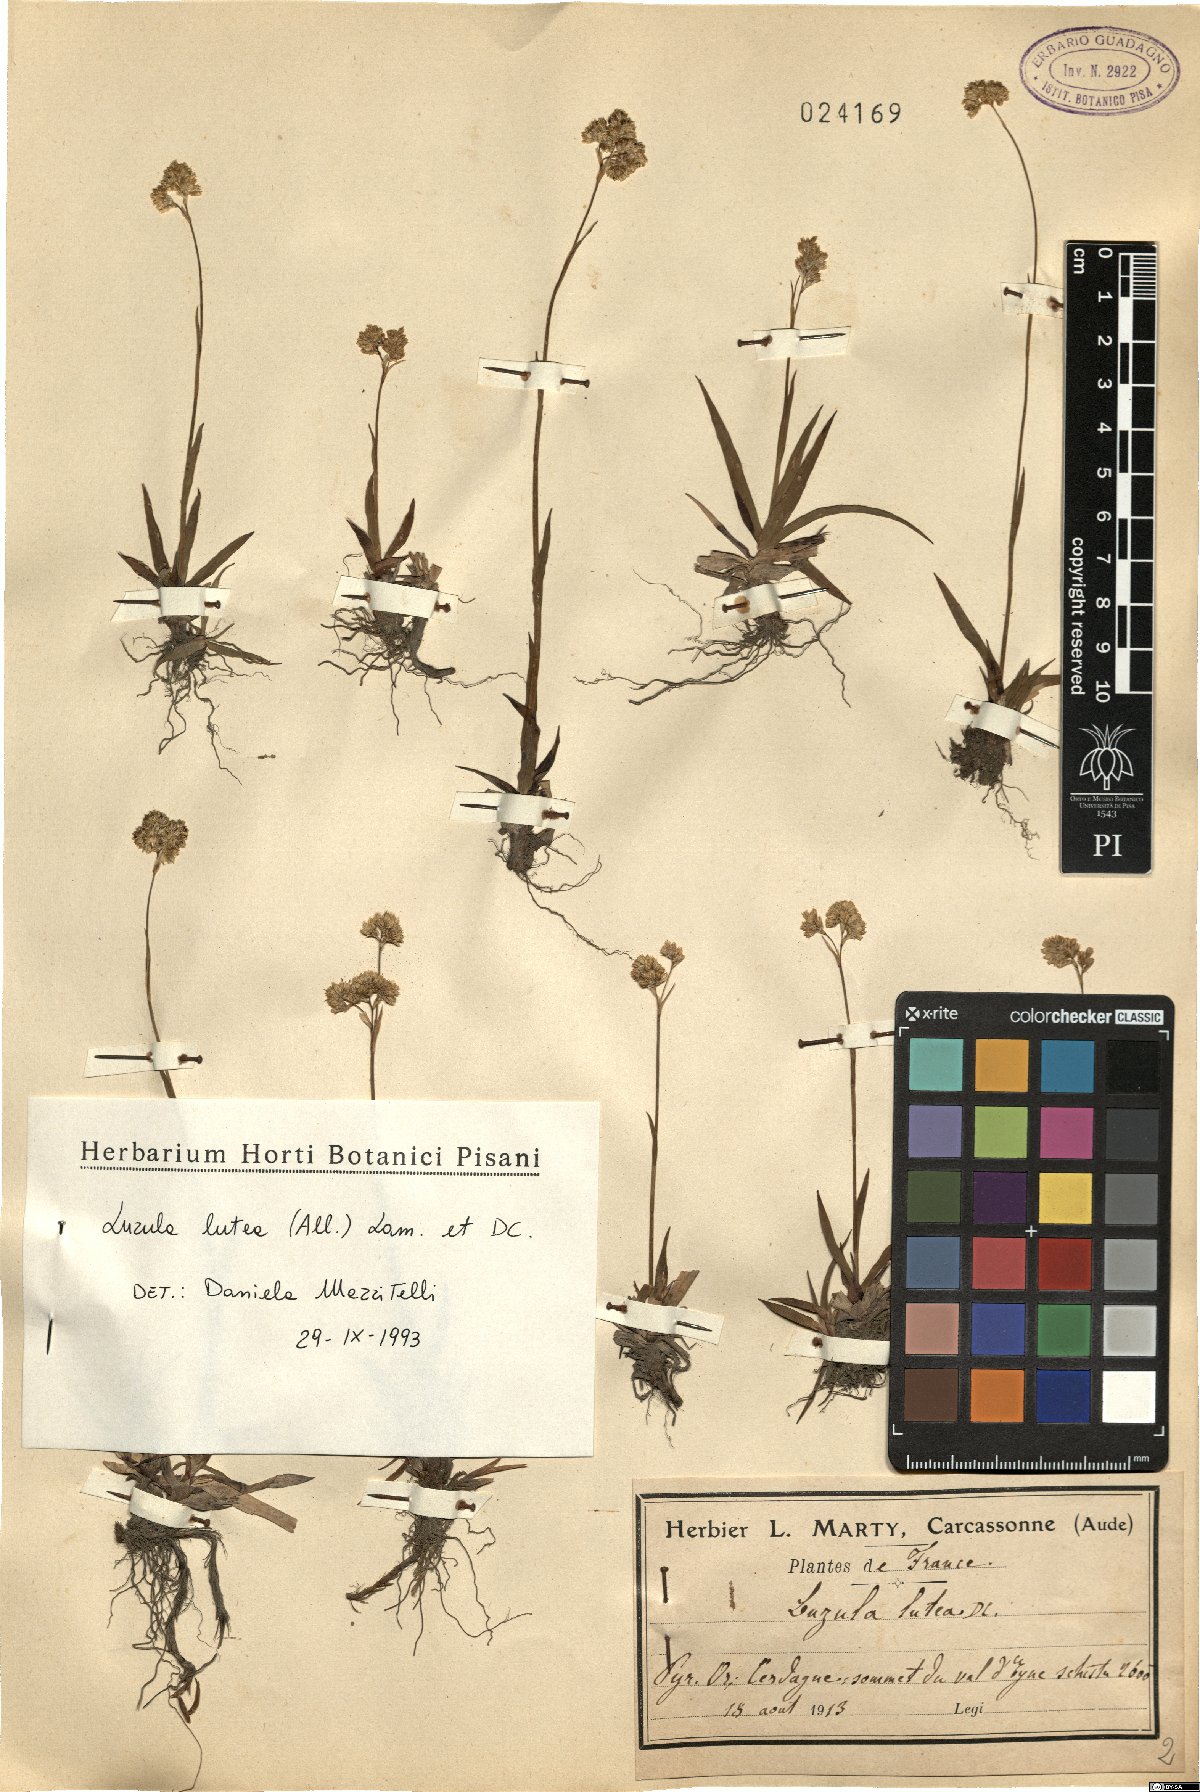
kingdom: Plantae
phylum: Tracheophyta
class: Liliopsida
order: Poales
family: Juncaceae
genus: Luzula
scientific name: Luzula lutea
